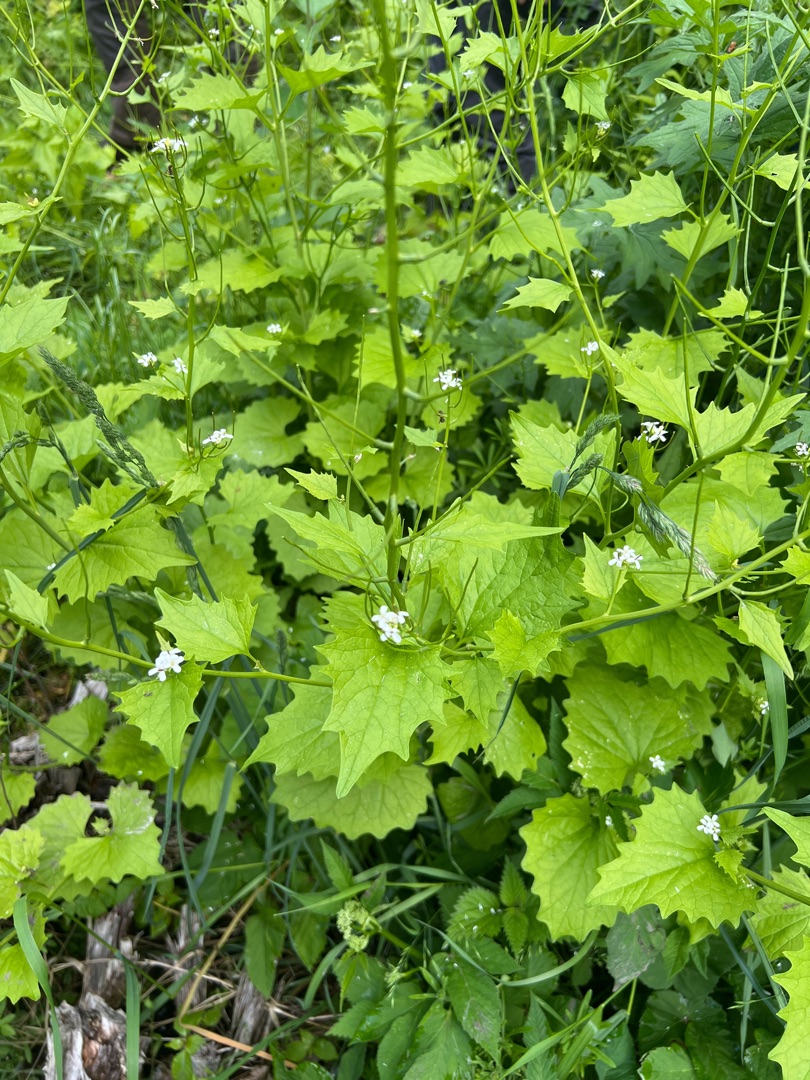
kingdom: Plantae
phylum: Tracheophyta
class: Magnoliopsida
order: Brassicales
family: Brassicaceae
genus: Alliaria
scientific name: Alliaria petiolata
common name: Løgkarse
